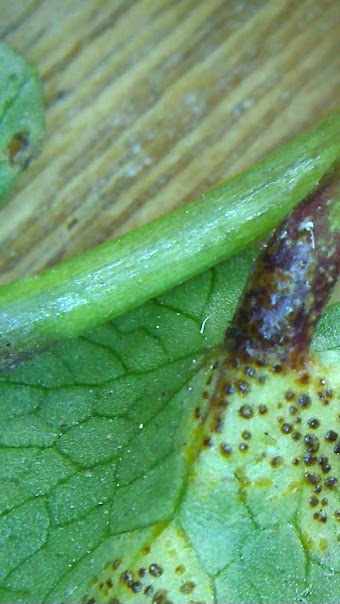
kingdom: Fungi
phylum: Basidiomycota
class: Pucciniomycetes
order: Pucciniales
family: Pucciniaceae
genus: Uromyces
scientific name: Uromyces ficariae
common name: vorterod-encellerust
